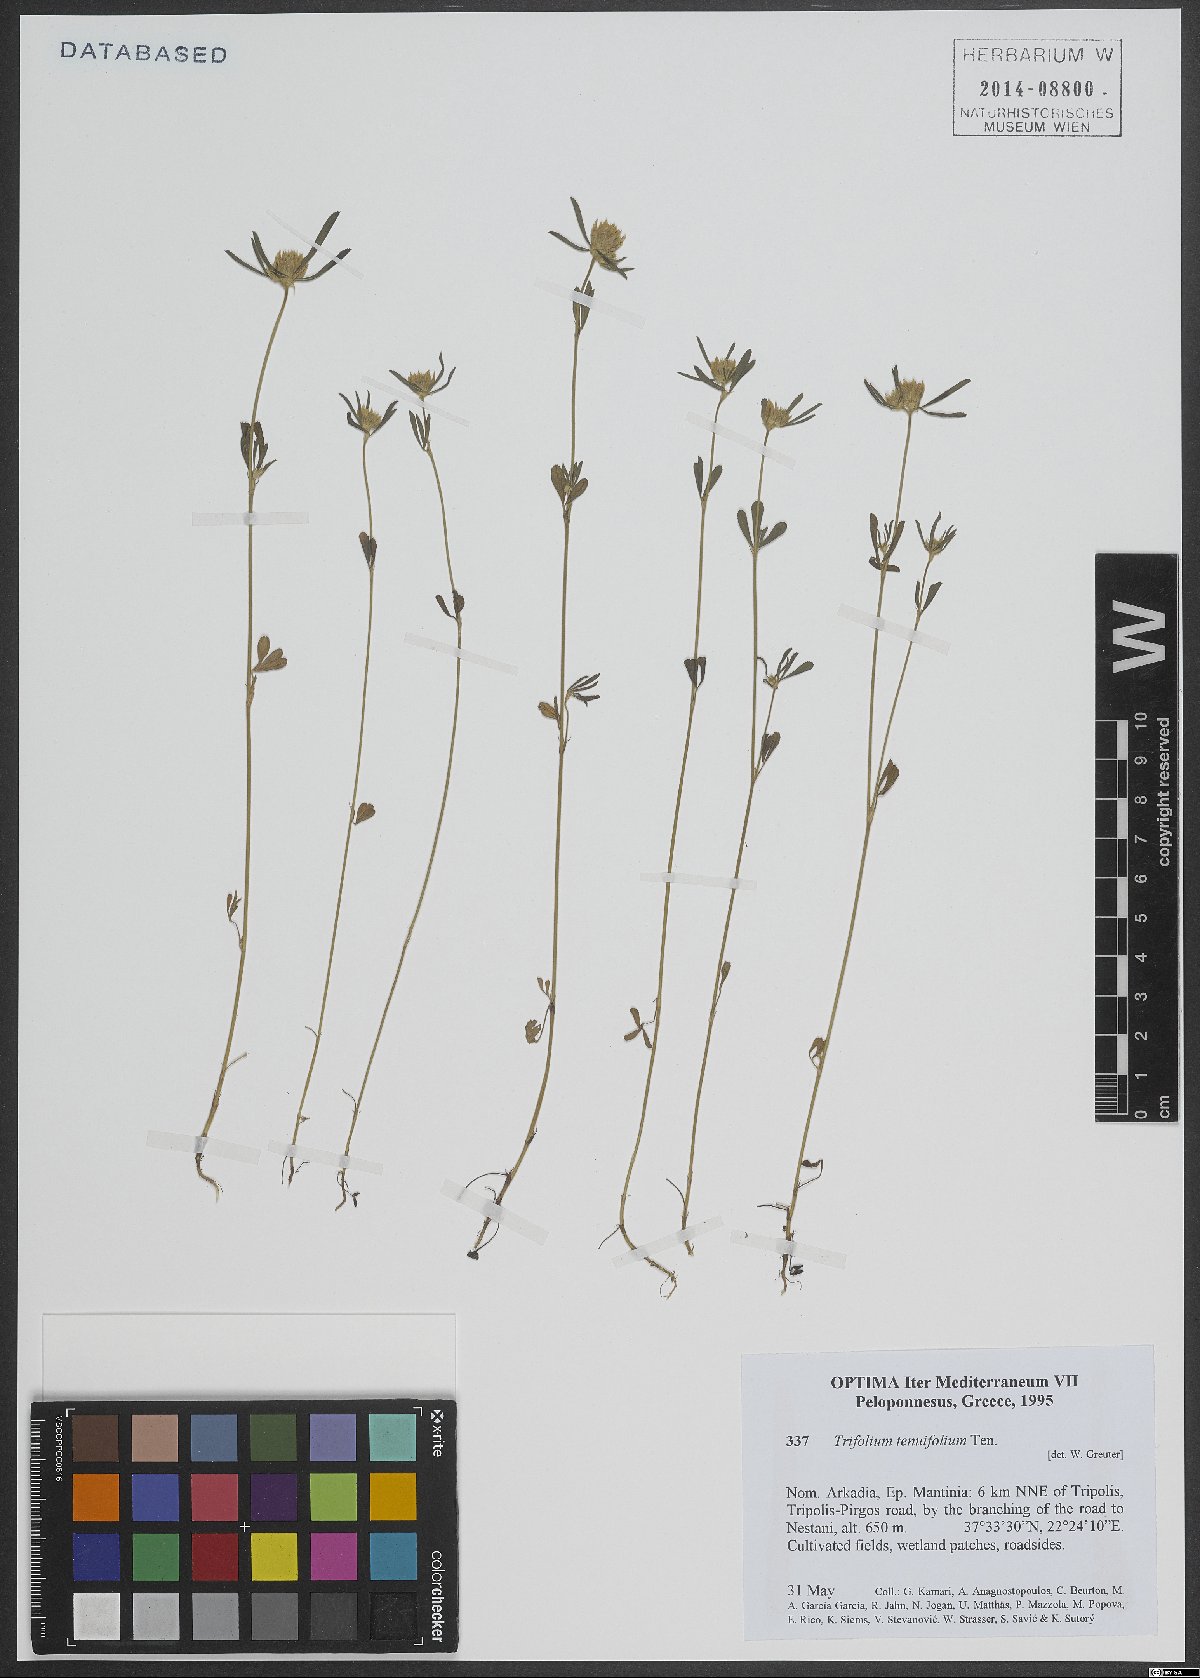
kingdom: Plantae
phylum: Tracheophyta
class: Magnoliopsida
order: Fabales
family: Fabaceae
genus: Trifolium
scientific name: Trifolium tenuifolium
